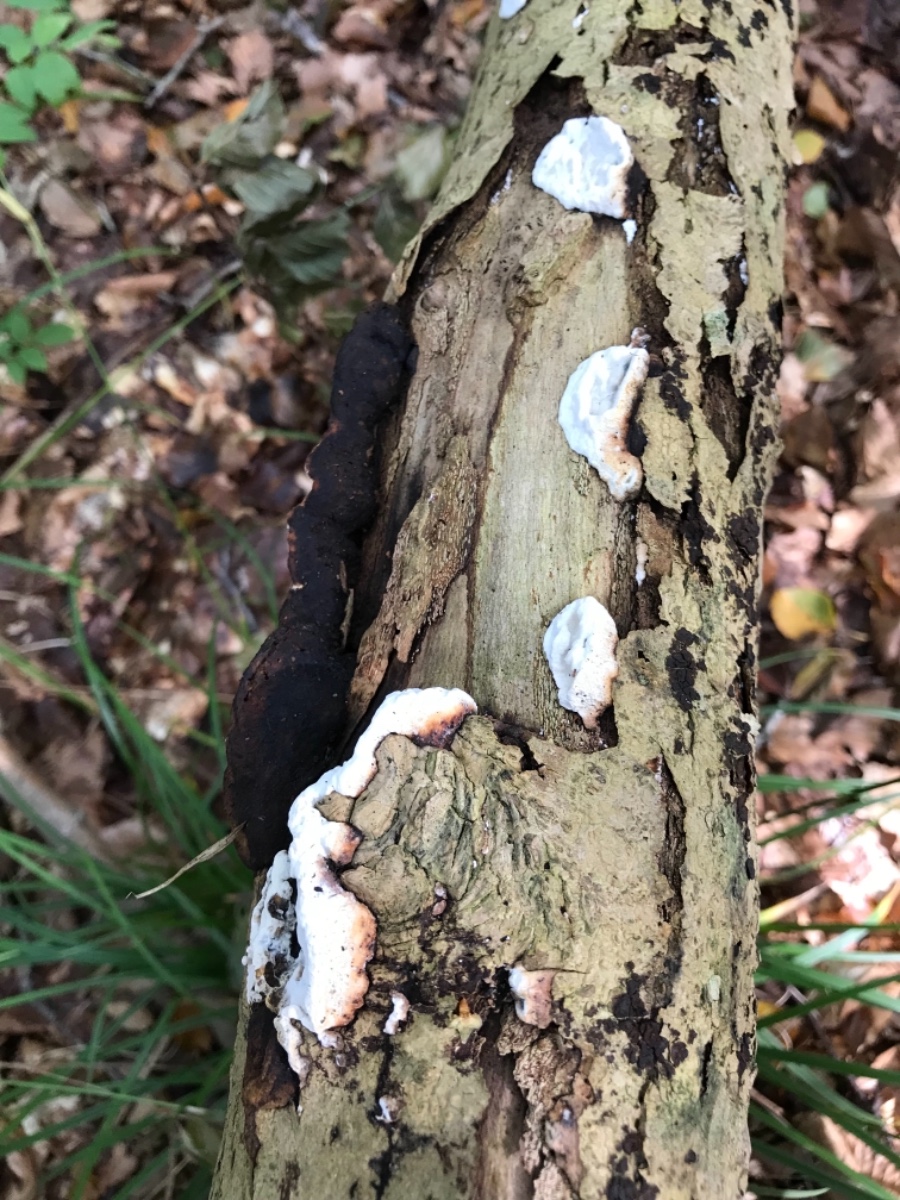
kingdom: Fungi
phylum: Basidiomycota
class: Agaricomycetes
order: Polyporales
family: Incrustoporiaceae
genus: Skeletocutis
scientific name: Skeletocutis nemoralis
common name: stor krystalporesvamp
